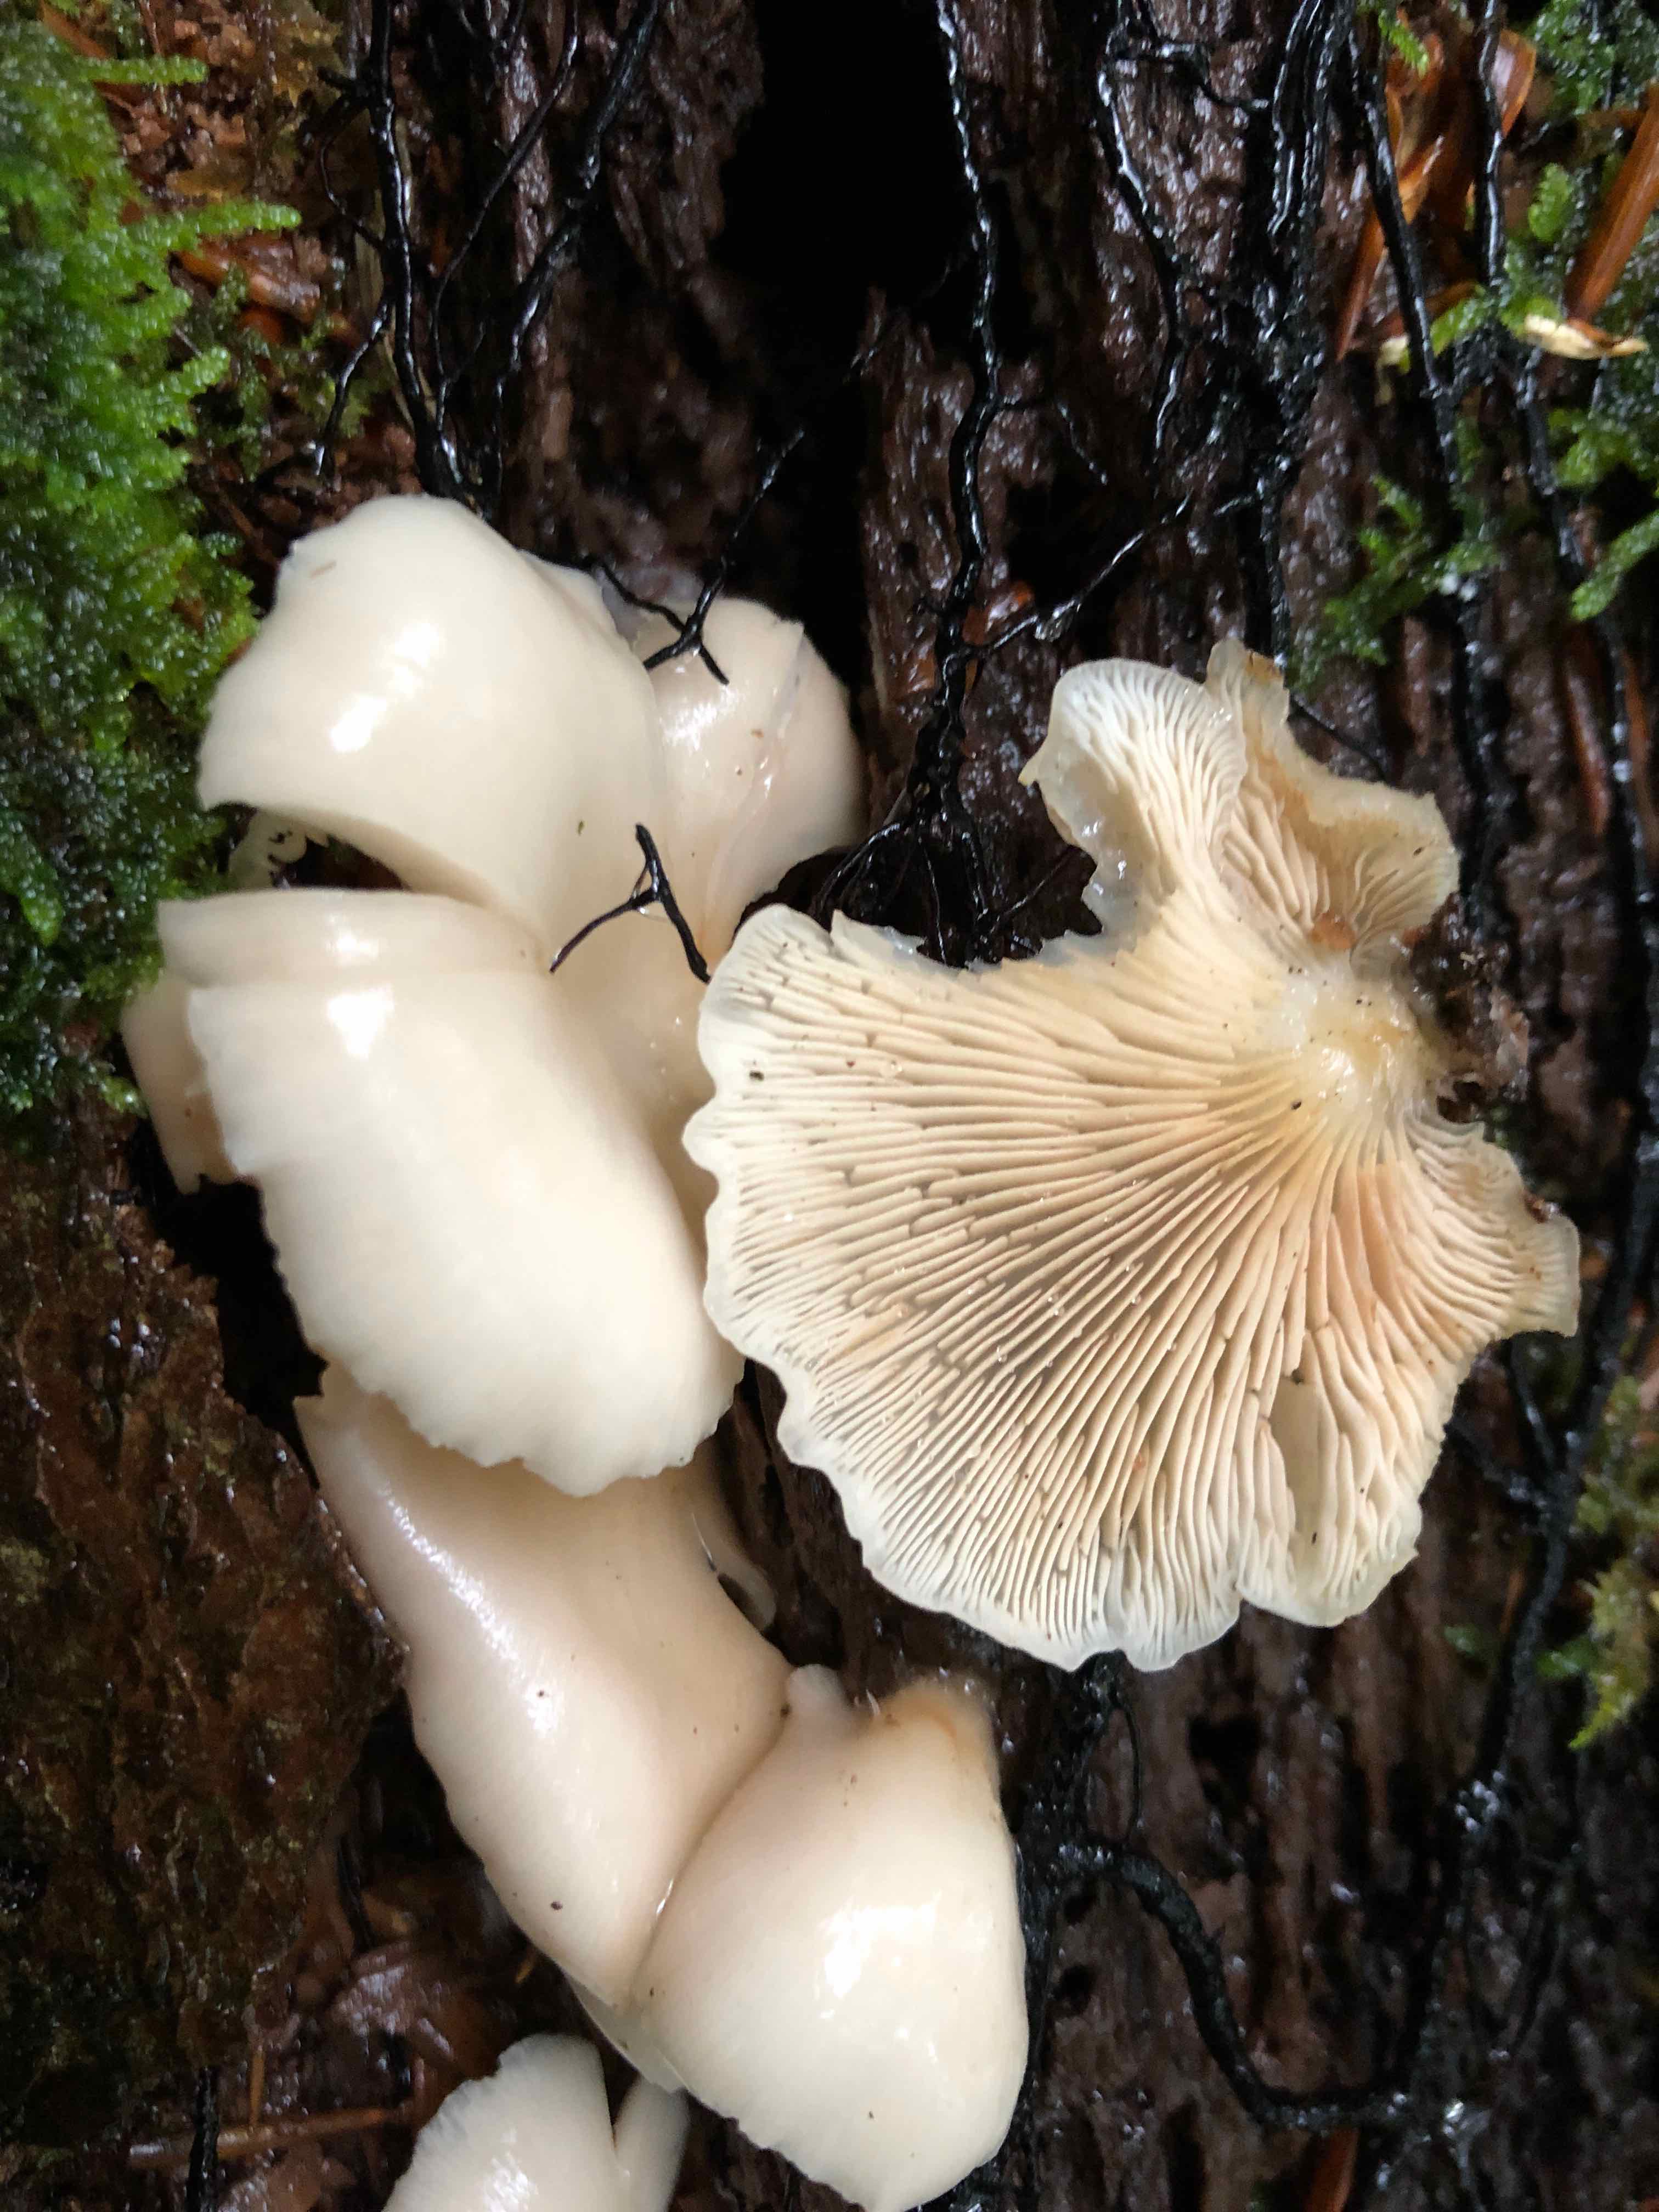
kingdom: Fungi
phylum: Basidiomycota
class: Agaricomycetes
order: Agaricales
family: Crepidotaceae
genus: Crepidotus
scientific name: Crepidotus mollis
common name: blød muslingesvamp
